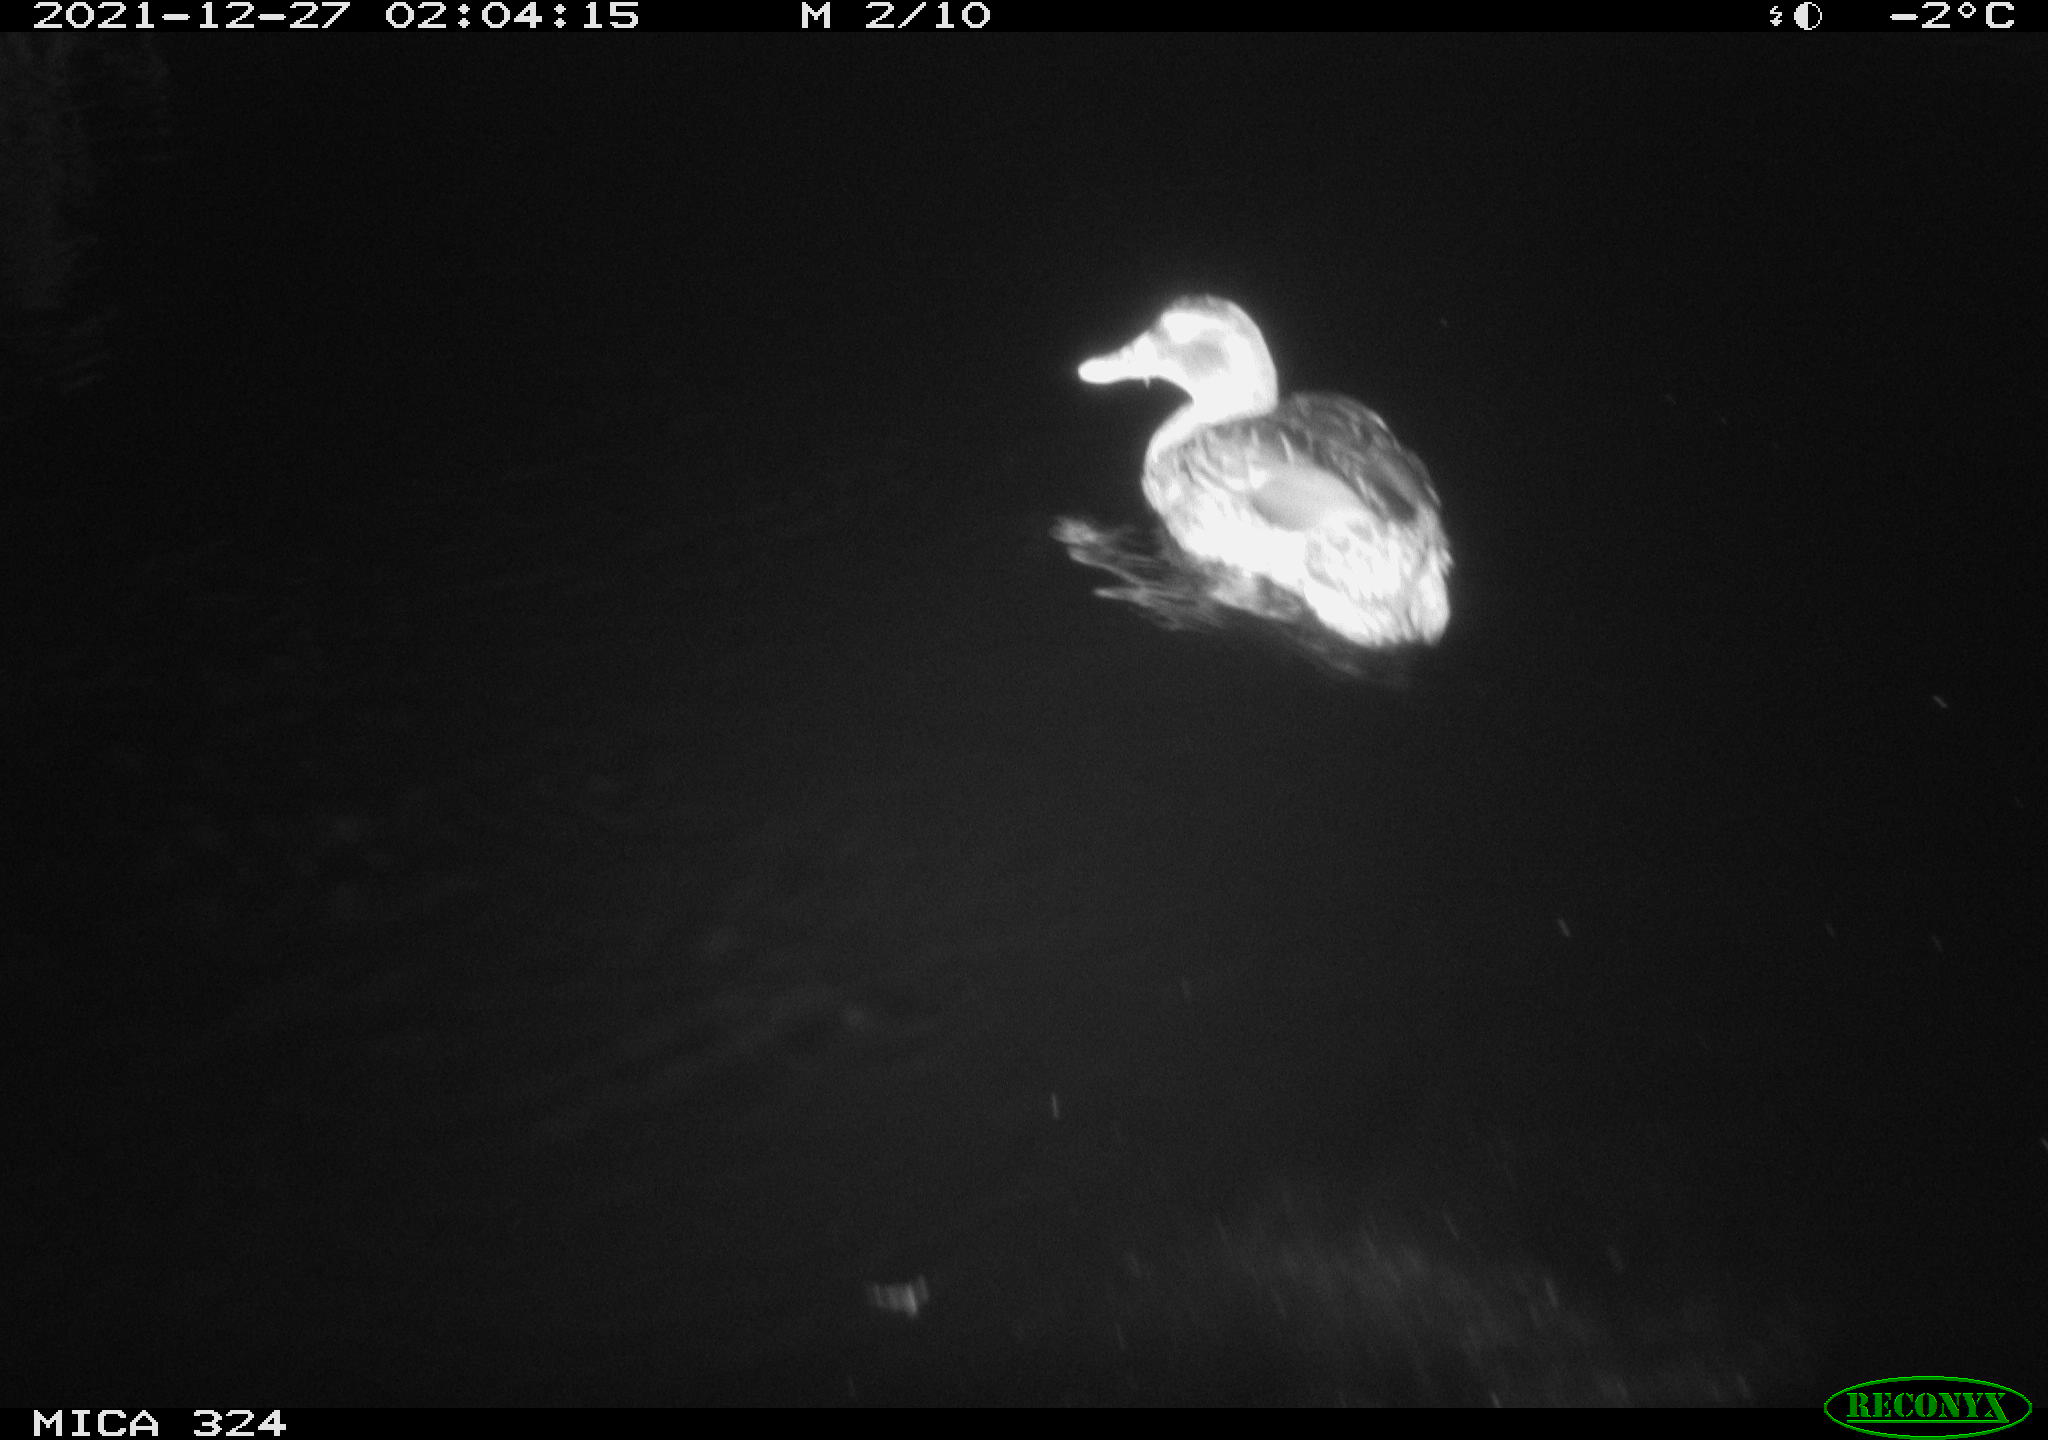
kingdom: Animalia
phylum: Chordata
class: Aves
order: Anseriformes
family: Anatidae
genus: Anas
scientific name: Anas platyrhynchos
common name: Mallard
